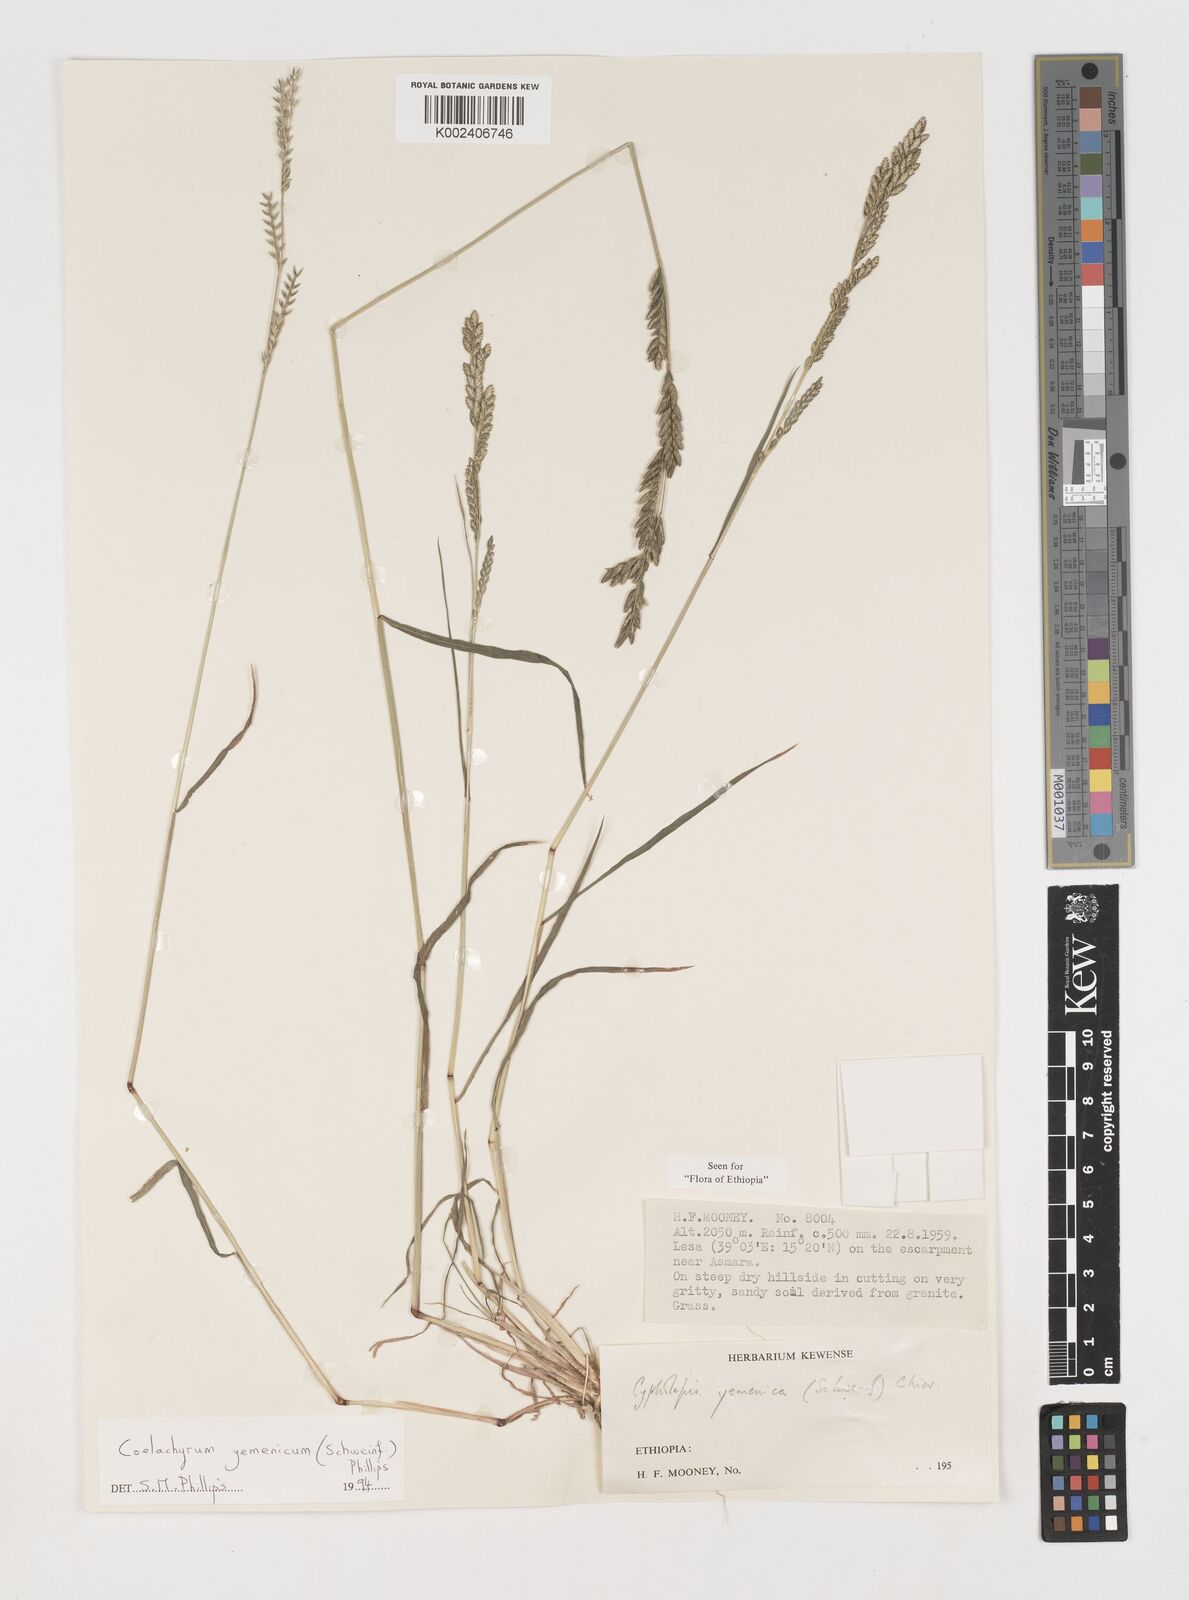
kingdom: Plantae
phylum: Tracheophyta
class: Liliopsida
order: Poales
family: Poaceae
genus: Disakisperma
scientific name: Disakisperma yemenicum
